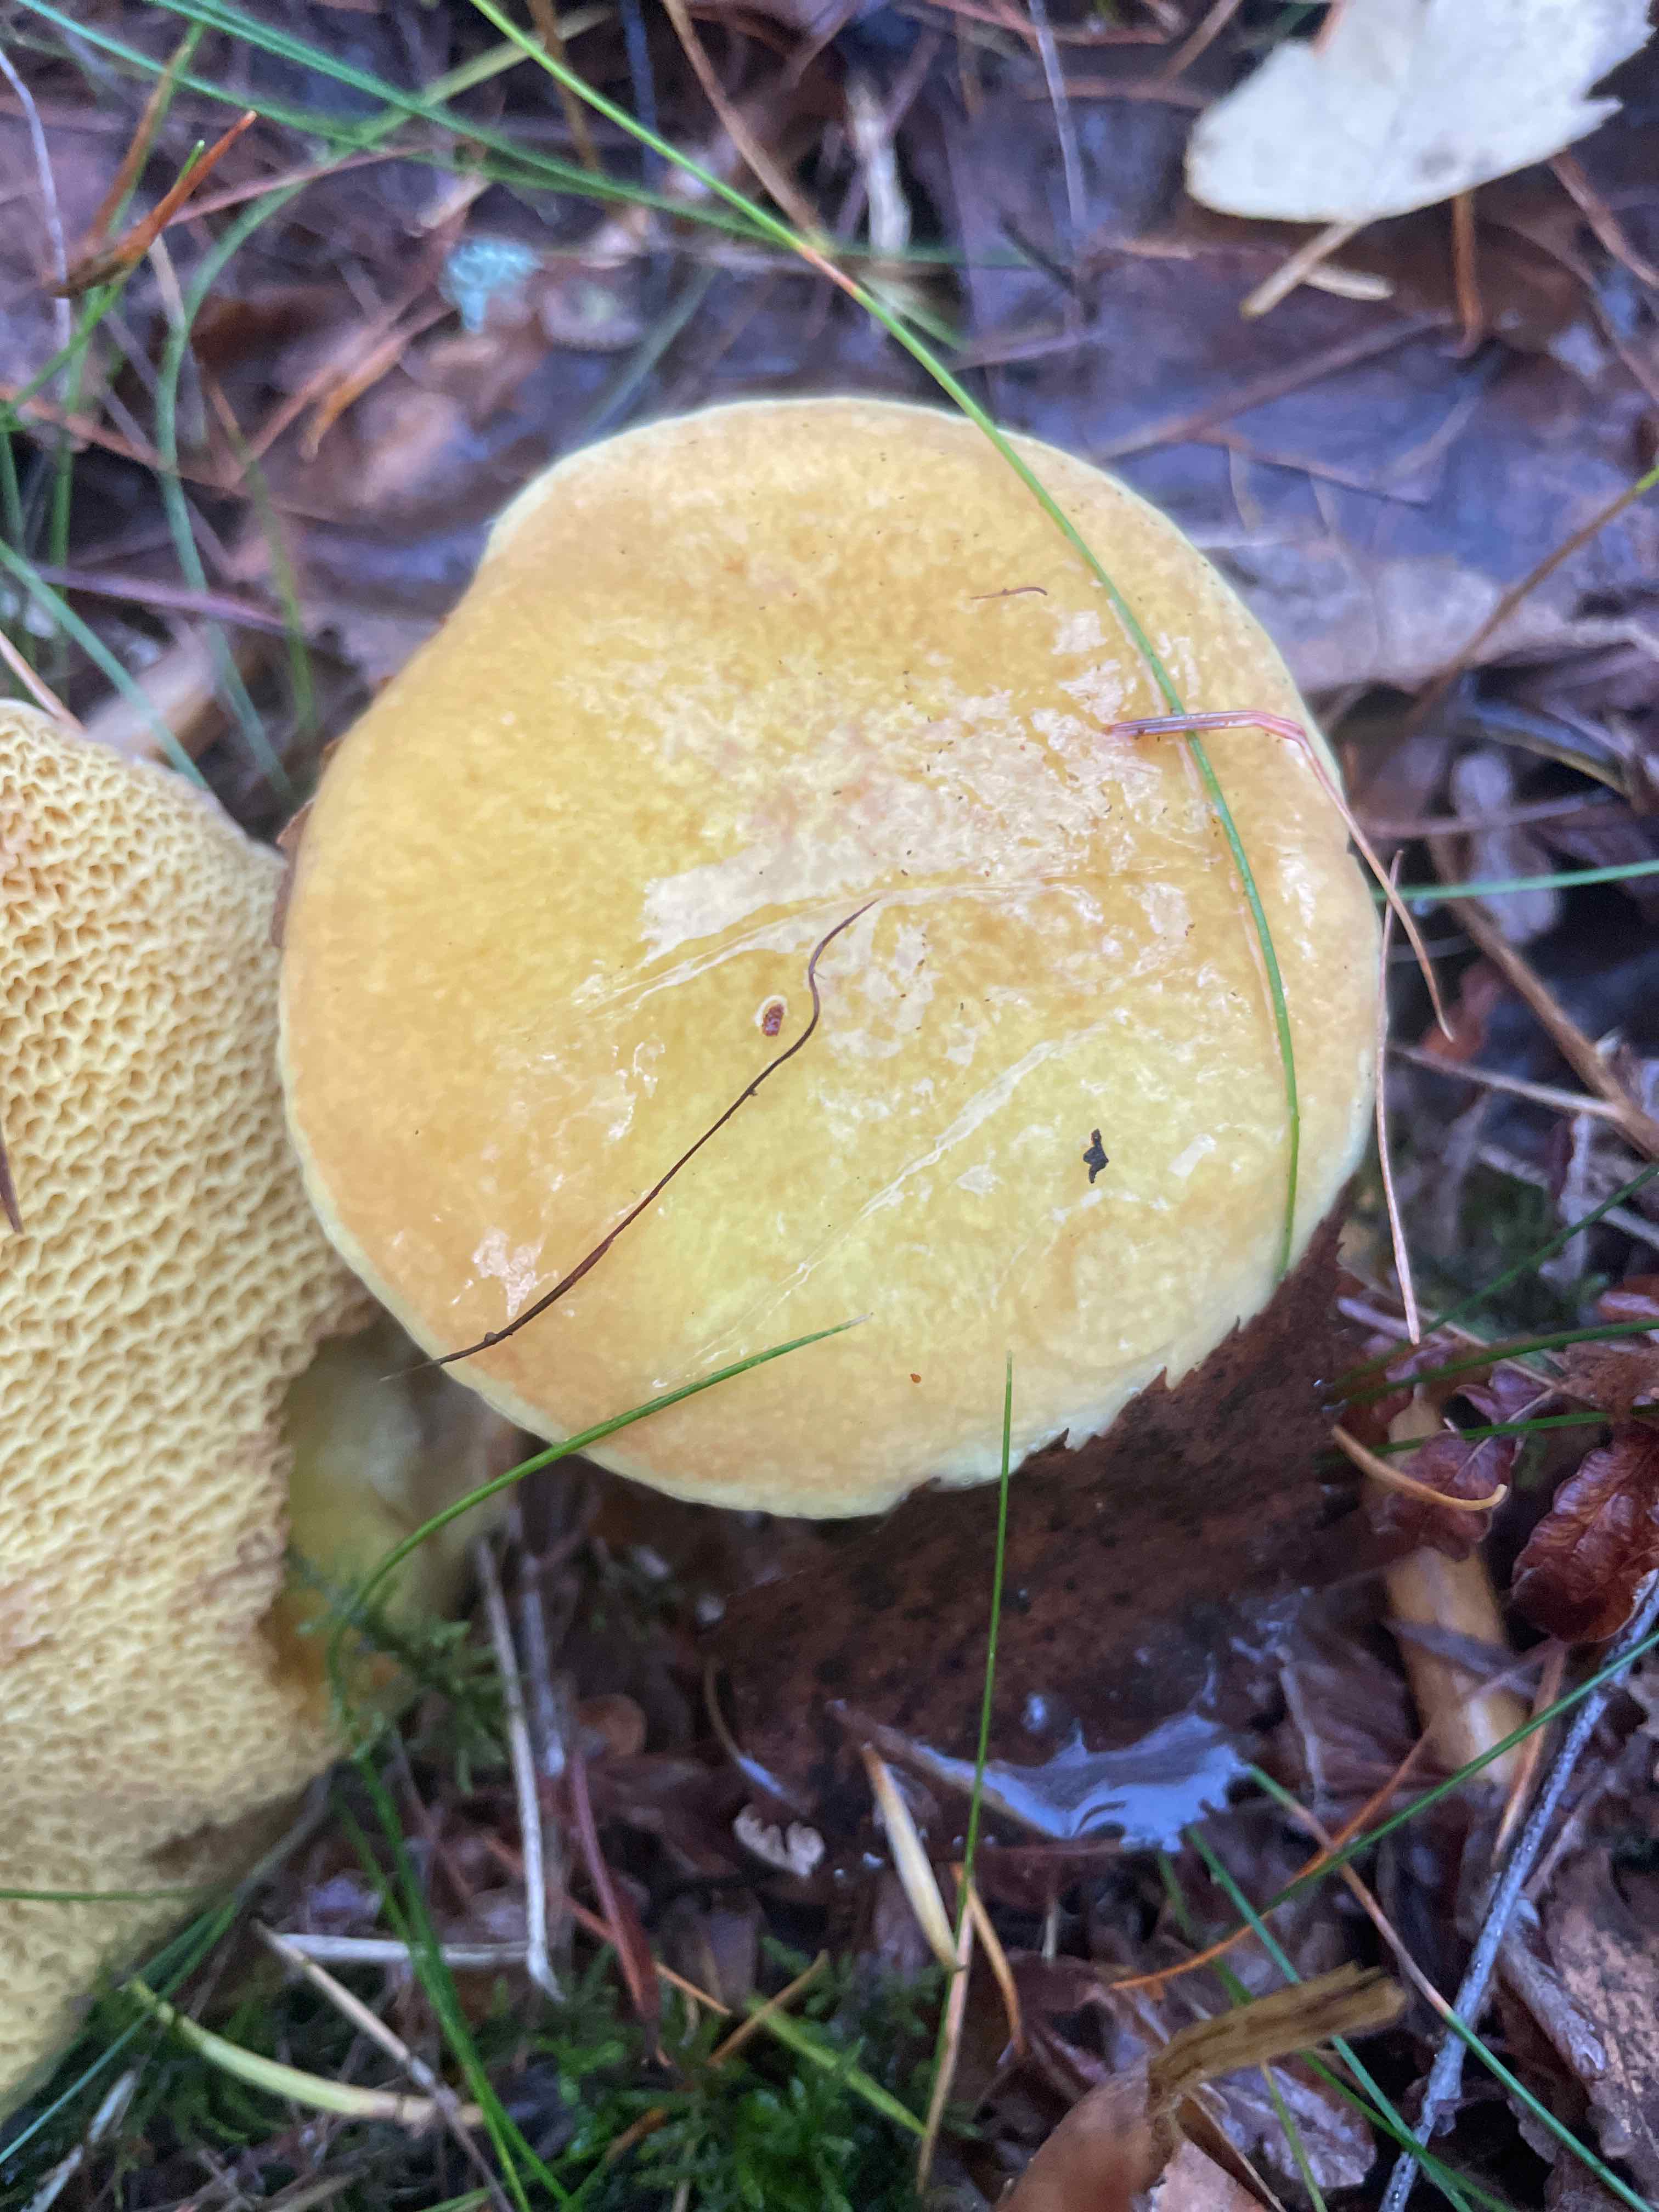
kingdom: Fungi
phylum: Basidiomycota
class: Agaricomycetes
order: Boletales
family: Suillaceae
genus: Suillus
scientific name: Suillus bovinus
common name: grovporet slimrørhat
